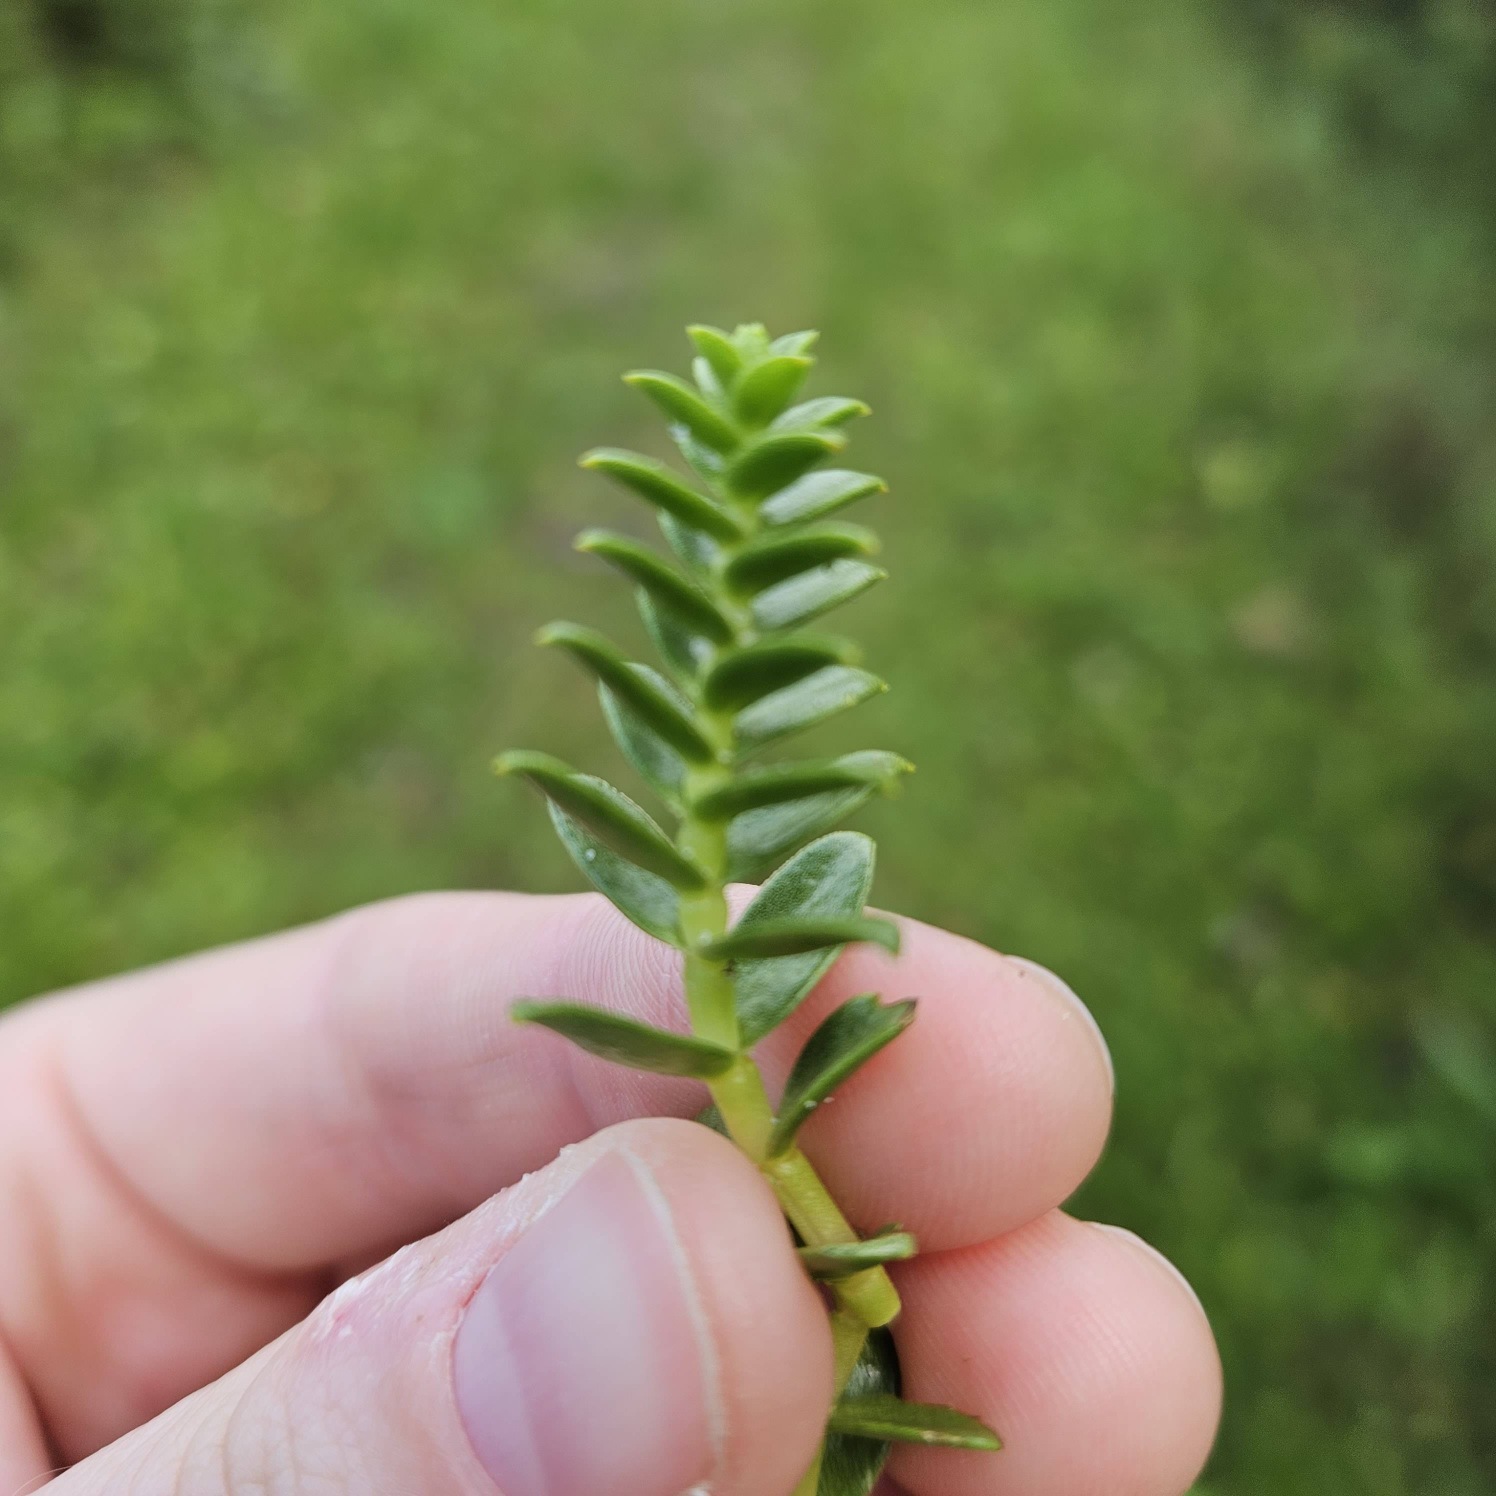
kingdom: Plantae
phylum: Tracheophyta
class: Magnoliopsida
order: Caryophyllales
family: Caryophyllaceae
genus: Honckenya
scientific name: Honckenya peploides
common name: Strandarve
